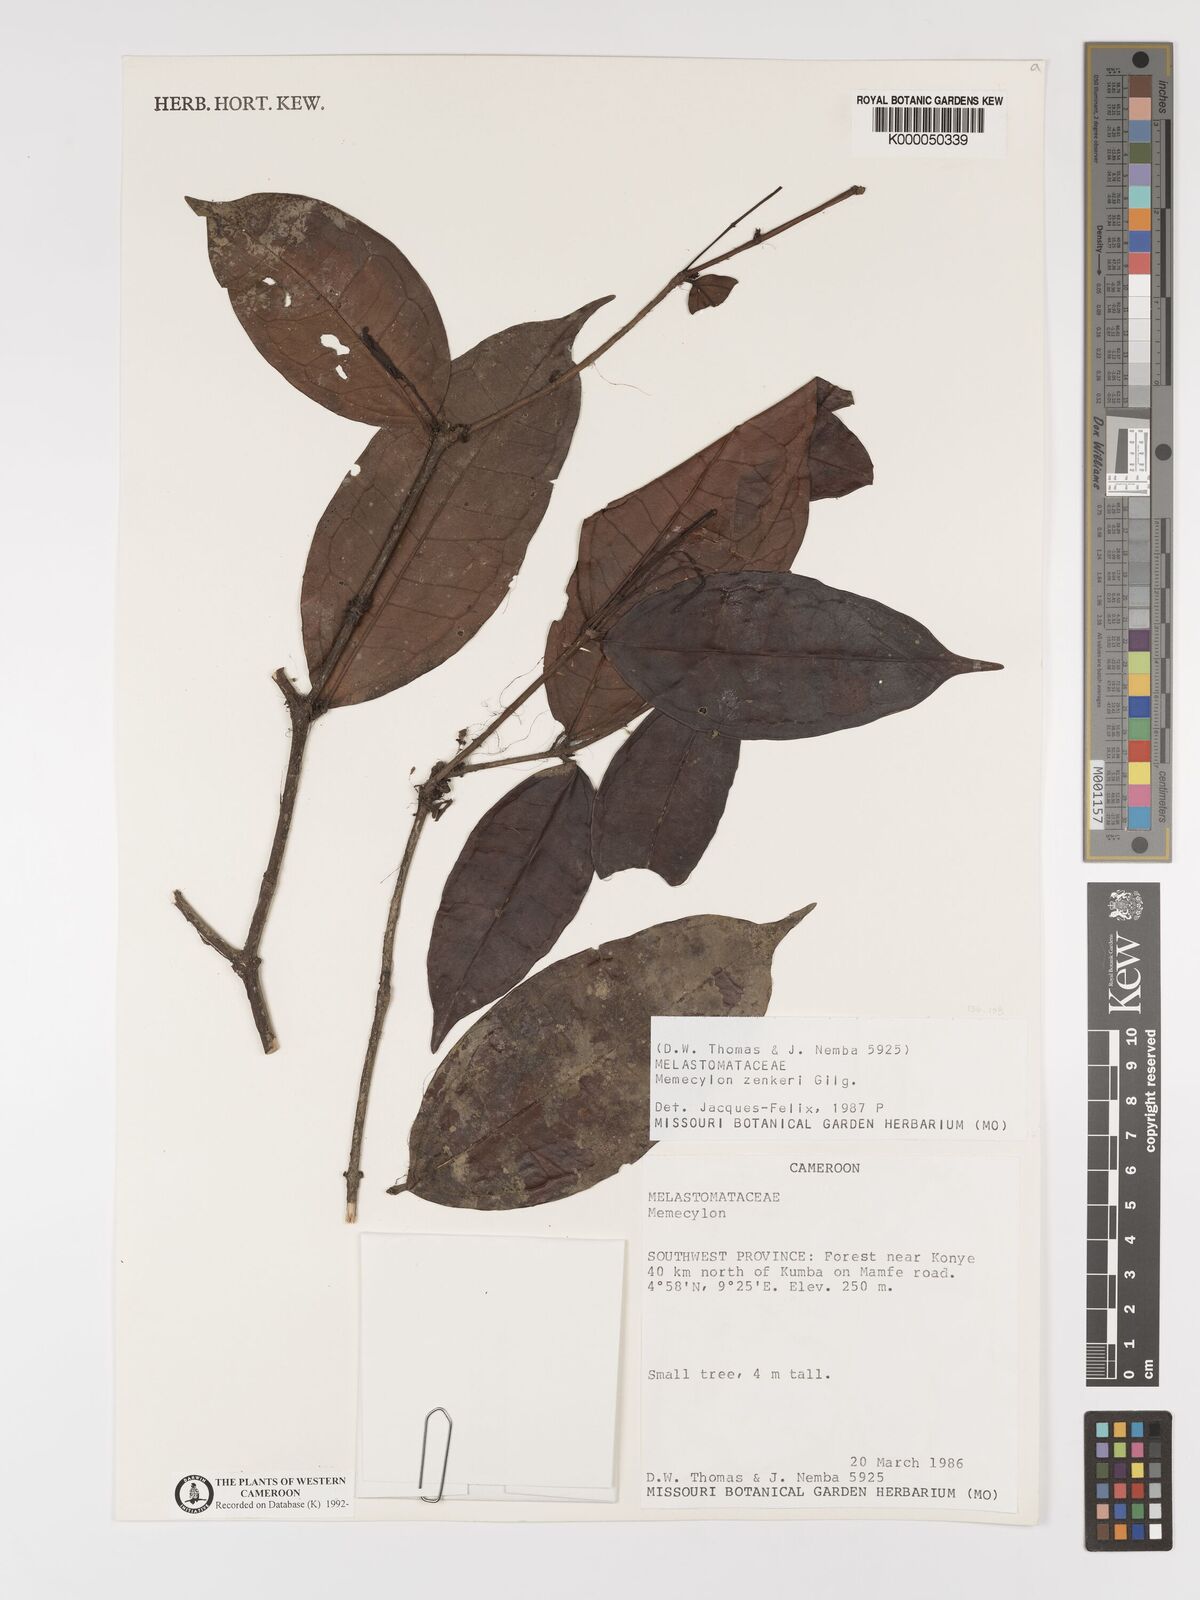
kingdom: Plantae
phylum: Tracheophyta
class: Magnoliopsida
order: Myrtales
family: Melastomataceae
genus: Memecylon
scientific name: Memecylon zenkeri
